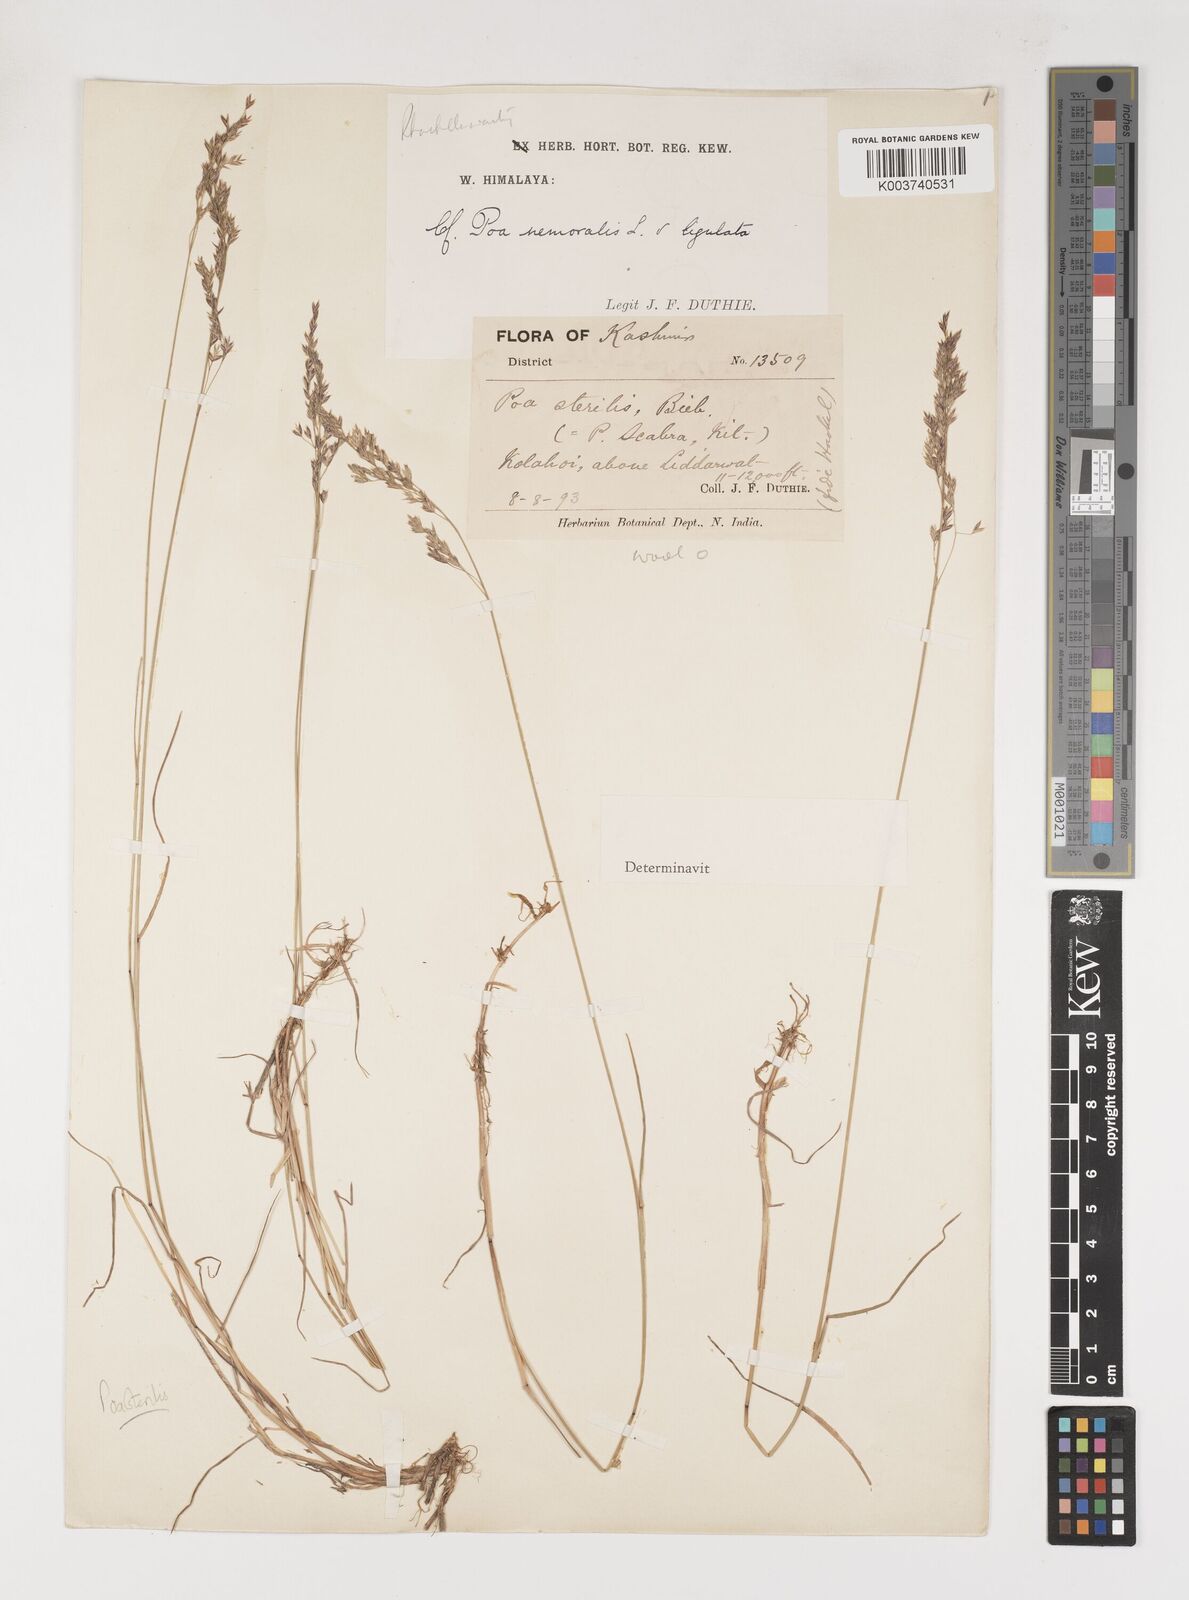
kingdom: Plantae
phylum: Tracheophyta
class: Liliopsida
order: Poales
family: Poaceae
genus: Poa
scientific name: Poa sterilis
